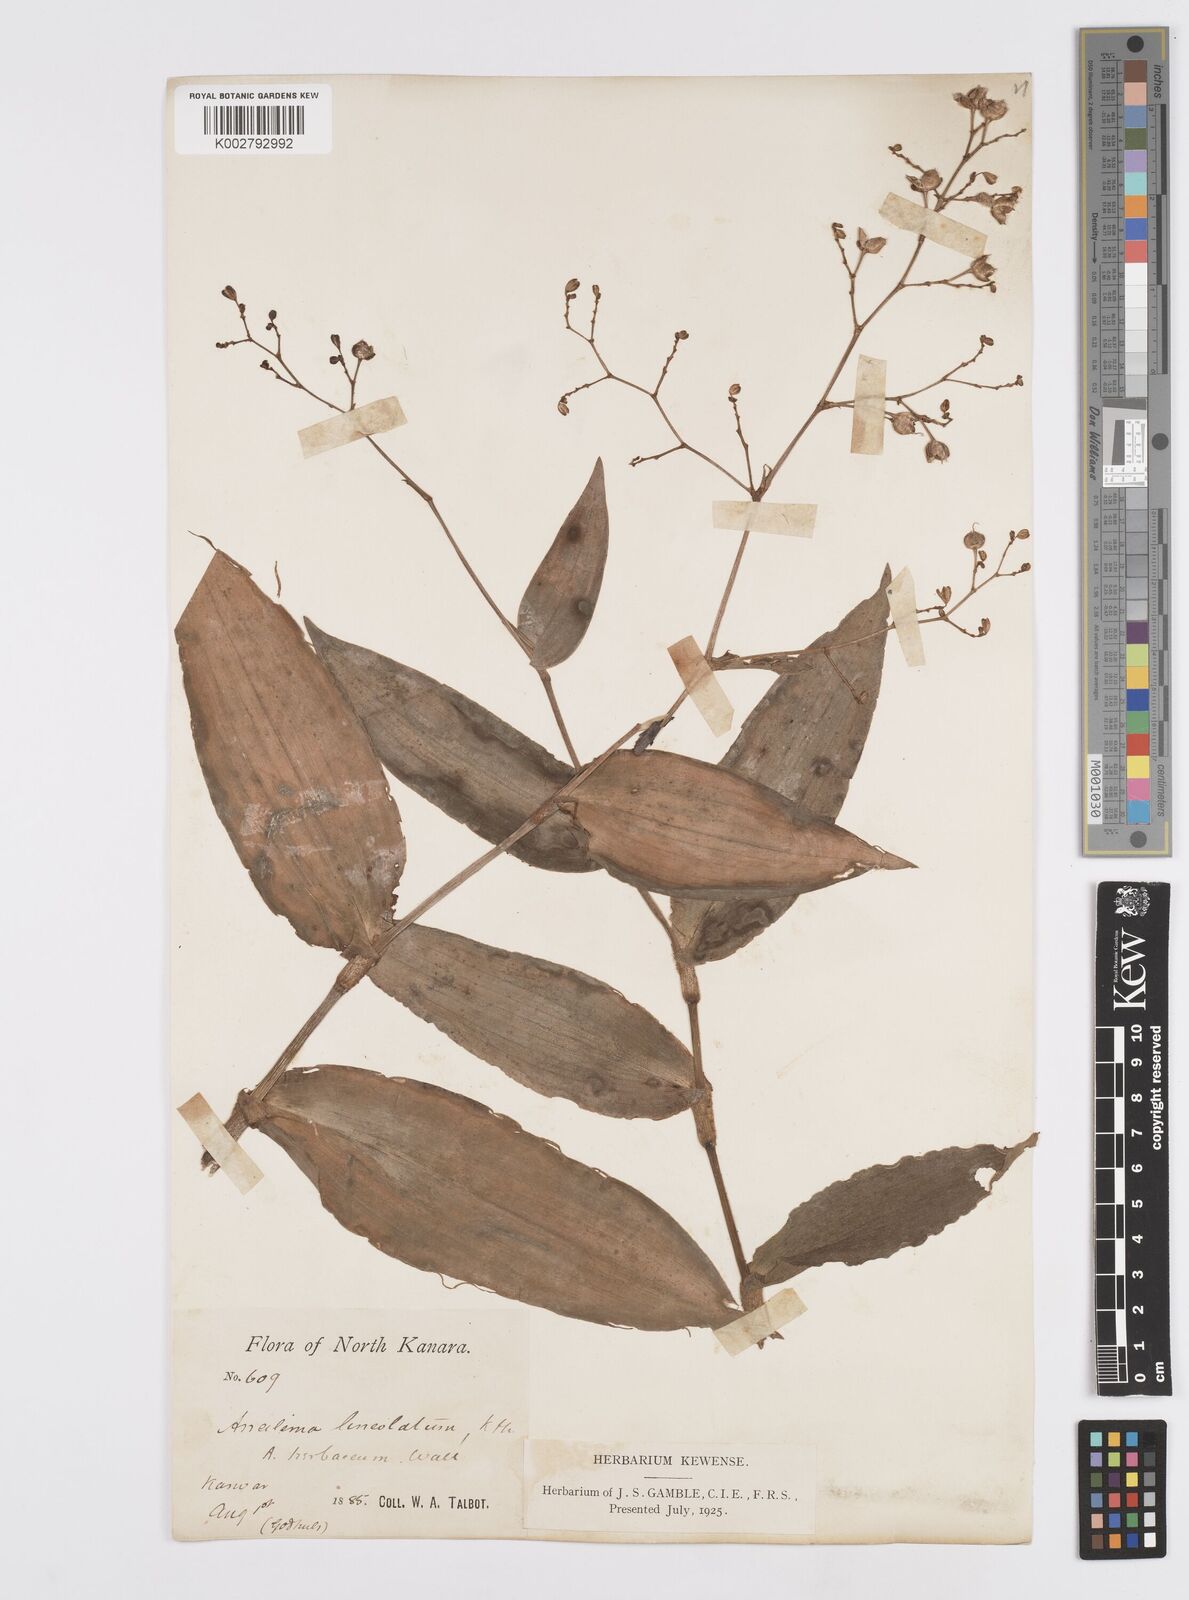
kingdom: Plantae
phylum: Tracheophyta
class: Liliopsida
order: Commelinales
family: Commelinaceae
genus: Murdannia
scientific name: Murdannia
